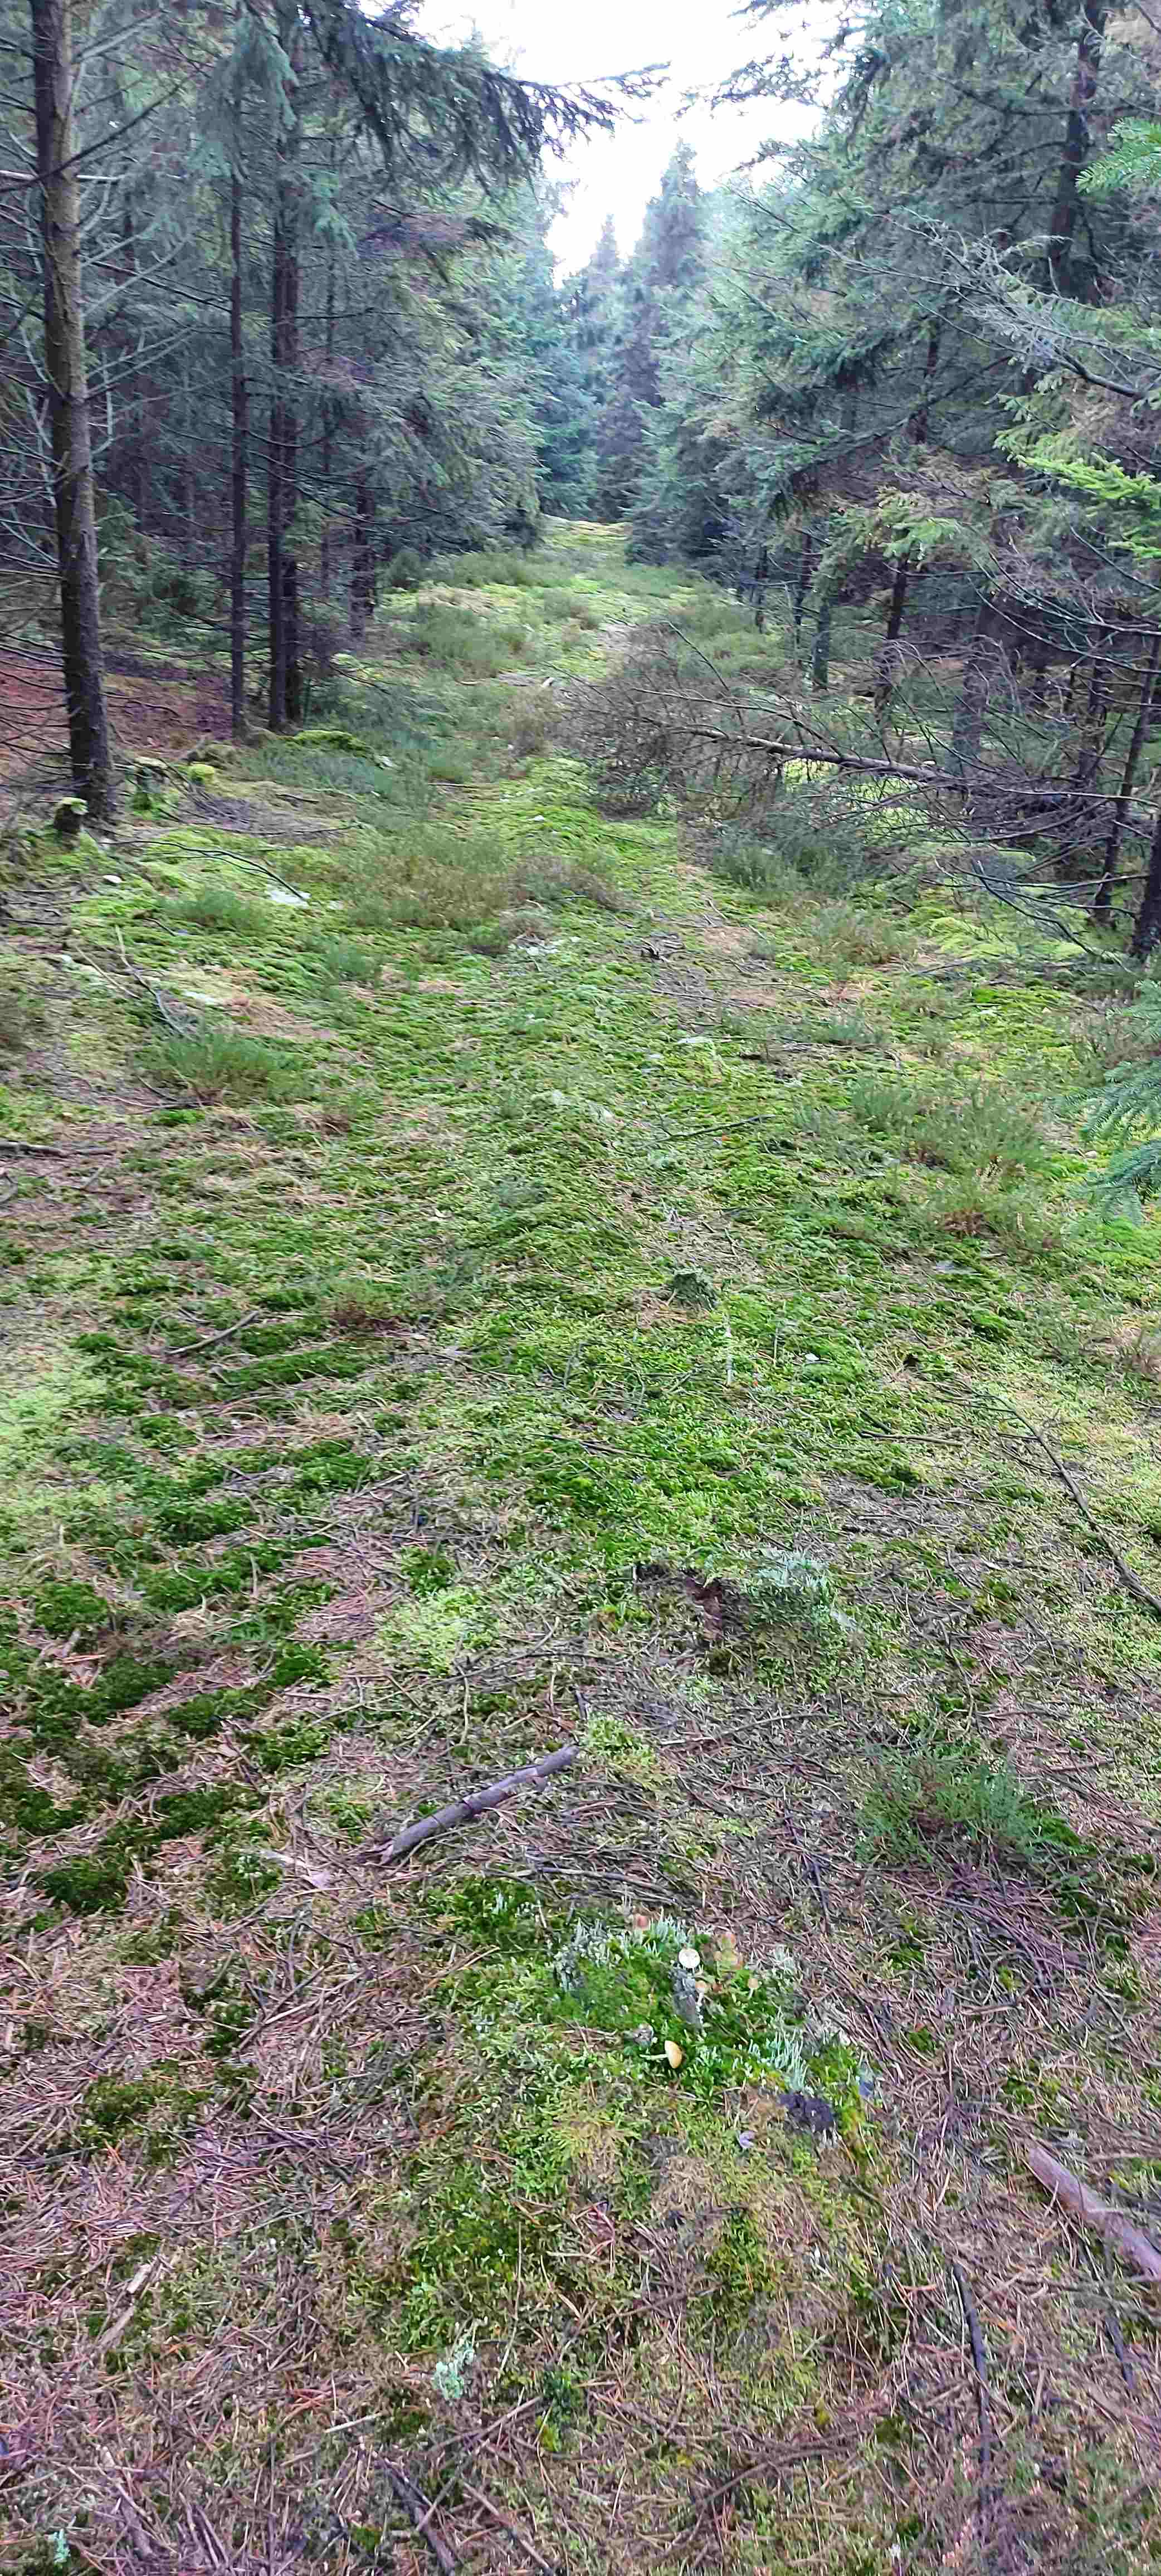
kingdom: Fungi
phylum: Basidiomycota
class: Agaricomycetes
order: Agaricales
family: Mycenaceae
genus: Mycena
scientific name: Mycena epipterygia
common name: gulstokket huesvamp
